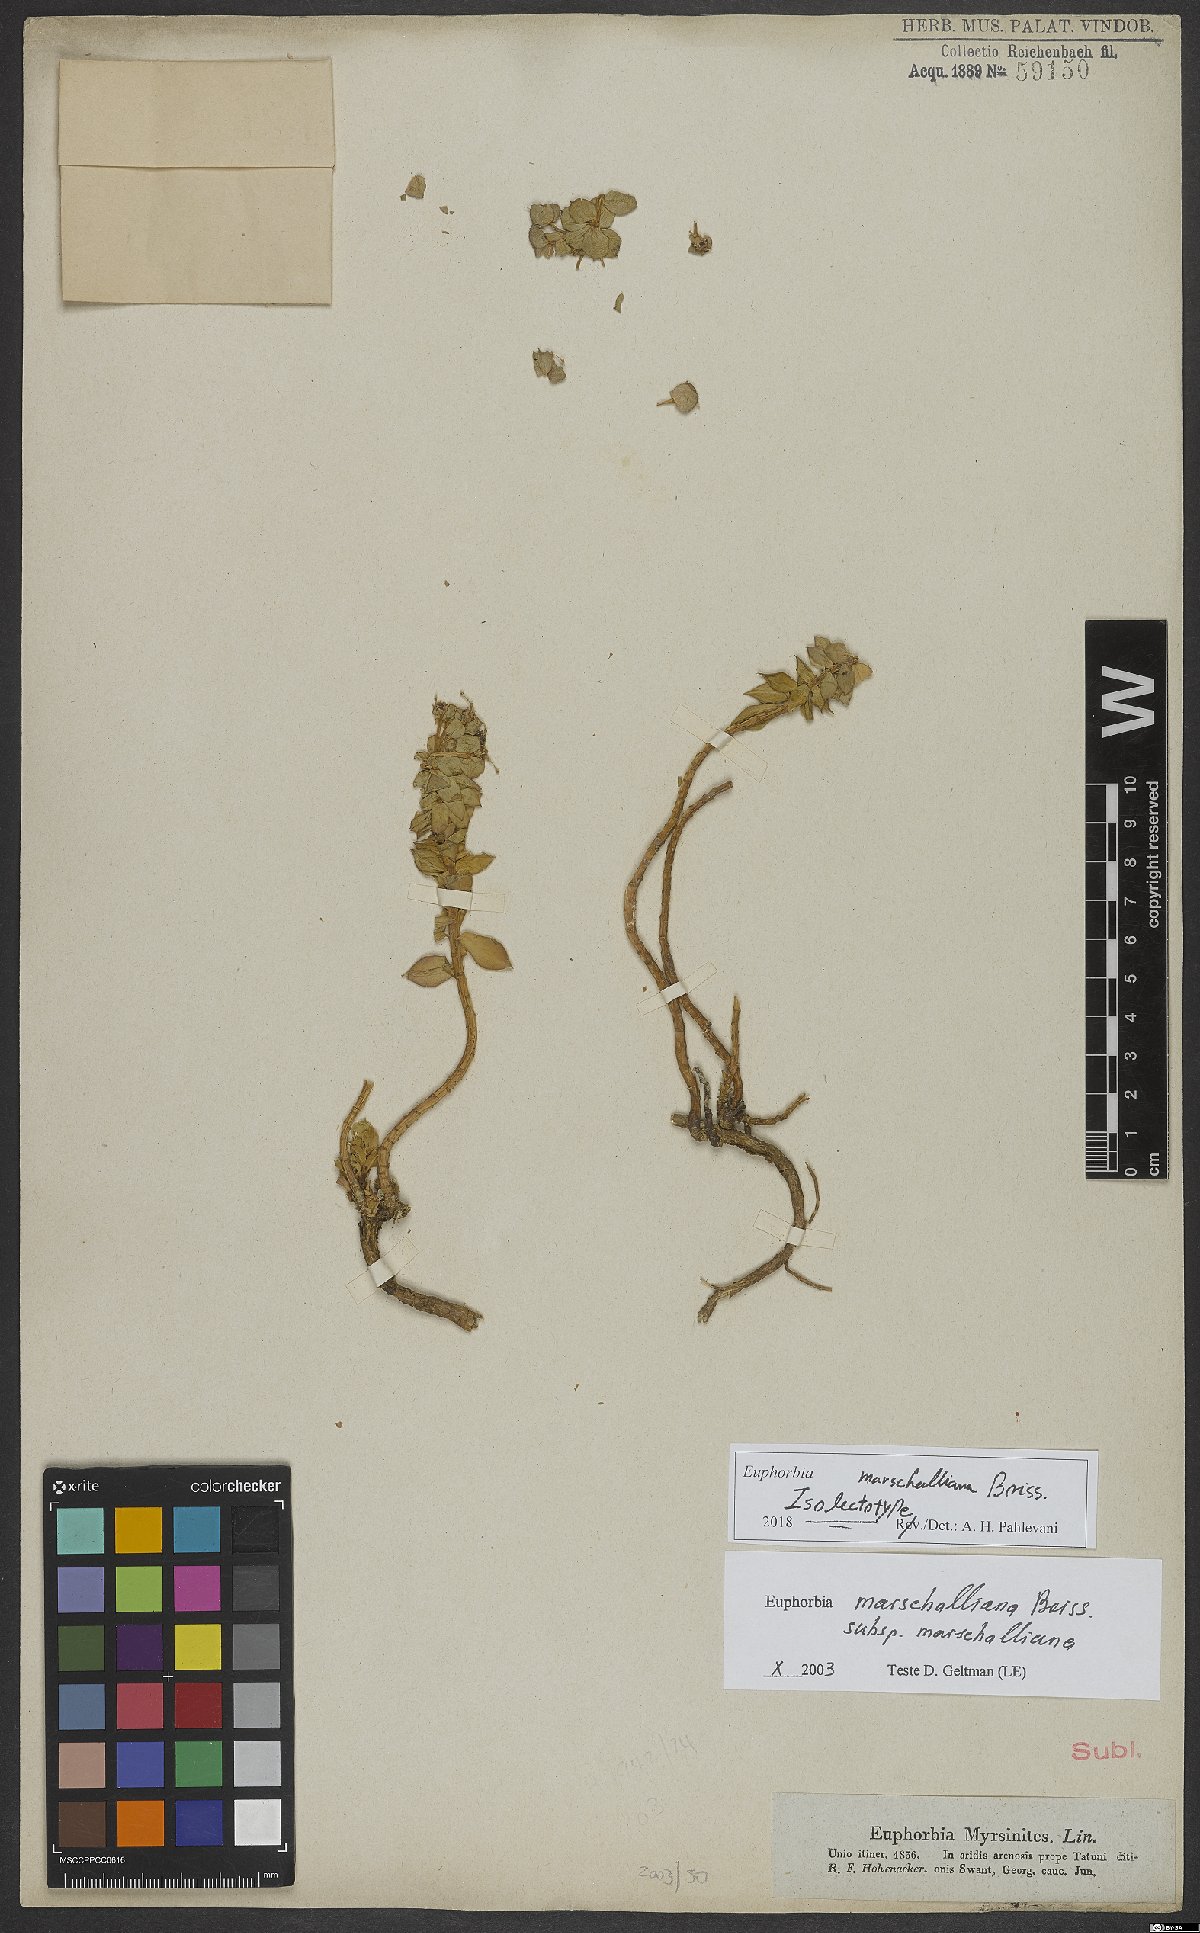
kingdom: Plantae
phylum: Tracheophyta
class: Magnoliopsida
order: Malpighiales
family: Euphorbiaceae
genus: Euphorbia
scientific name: Euphorbia marschalliana
